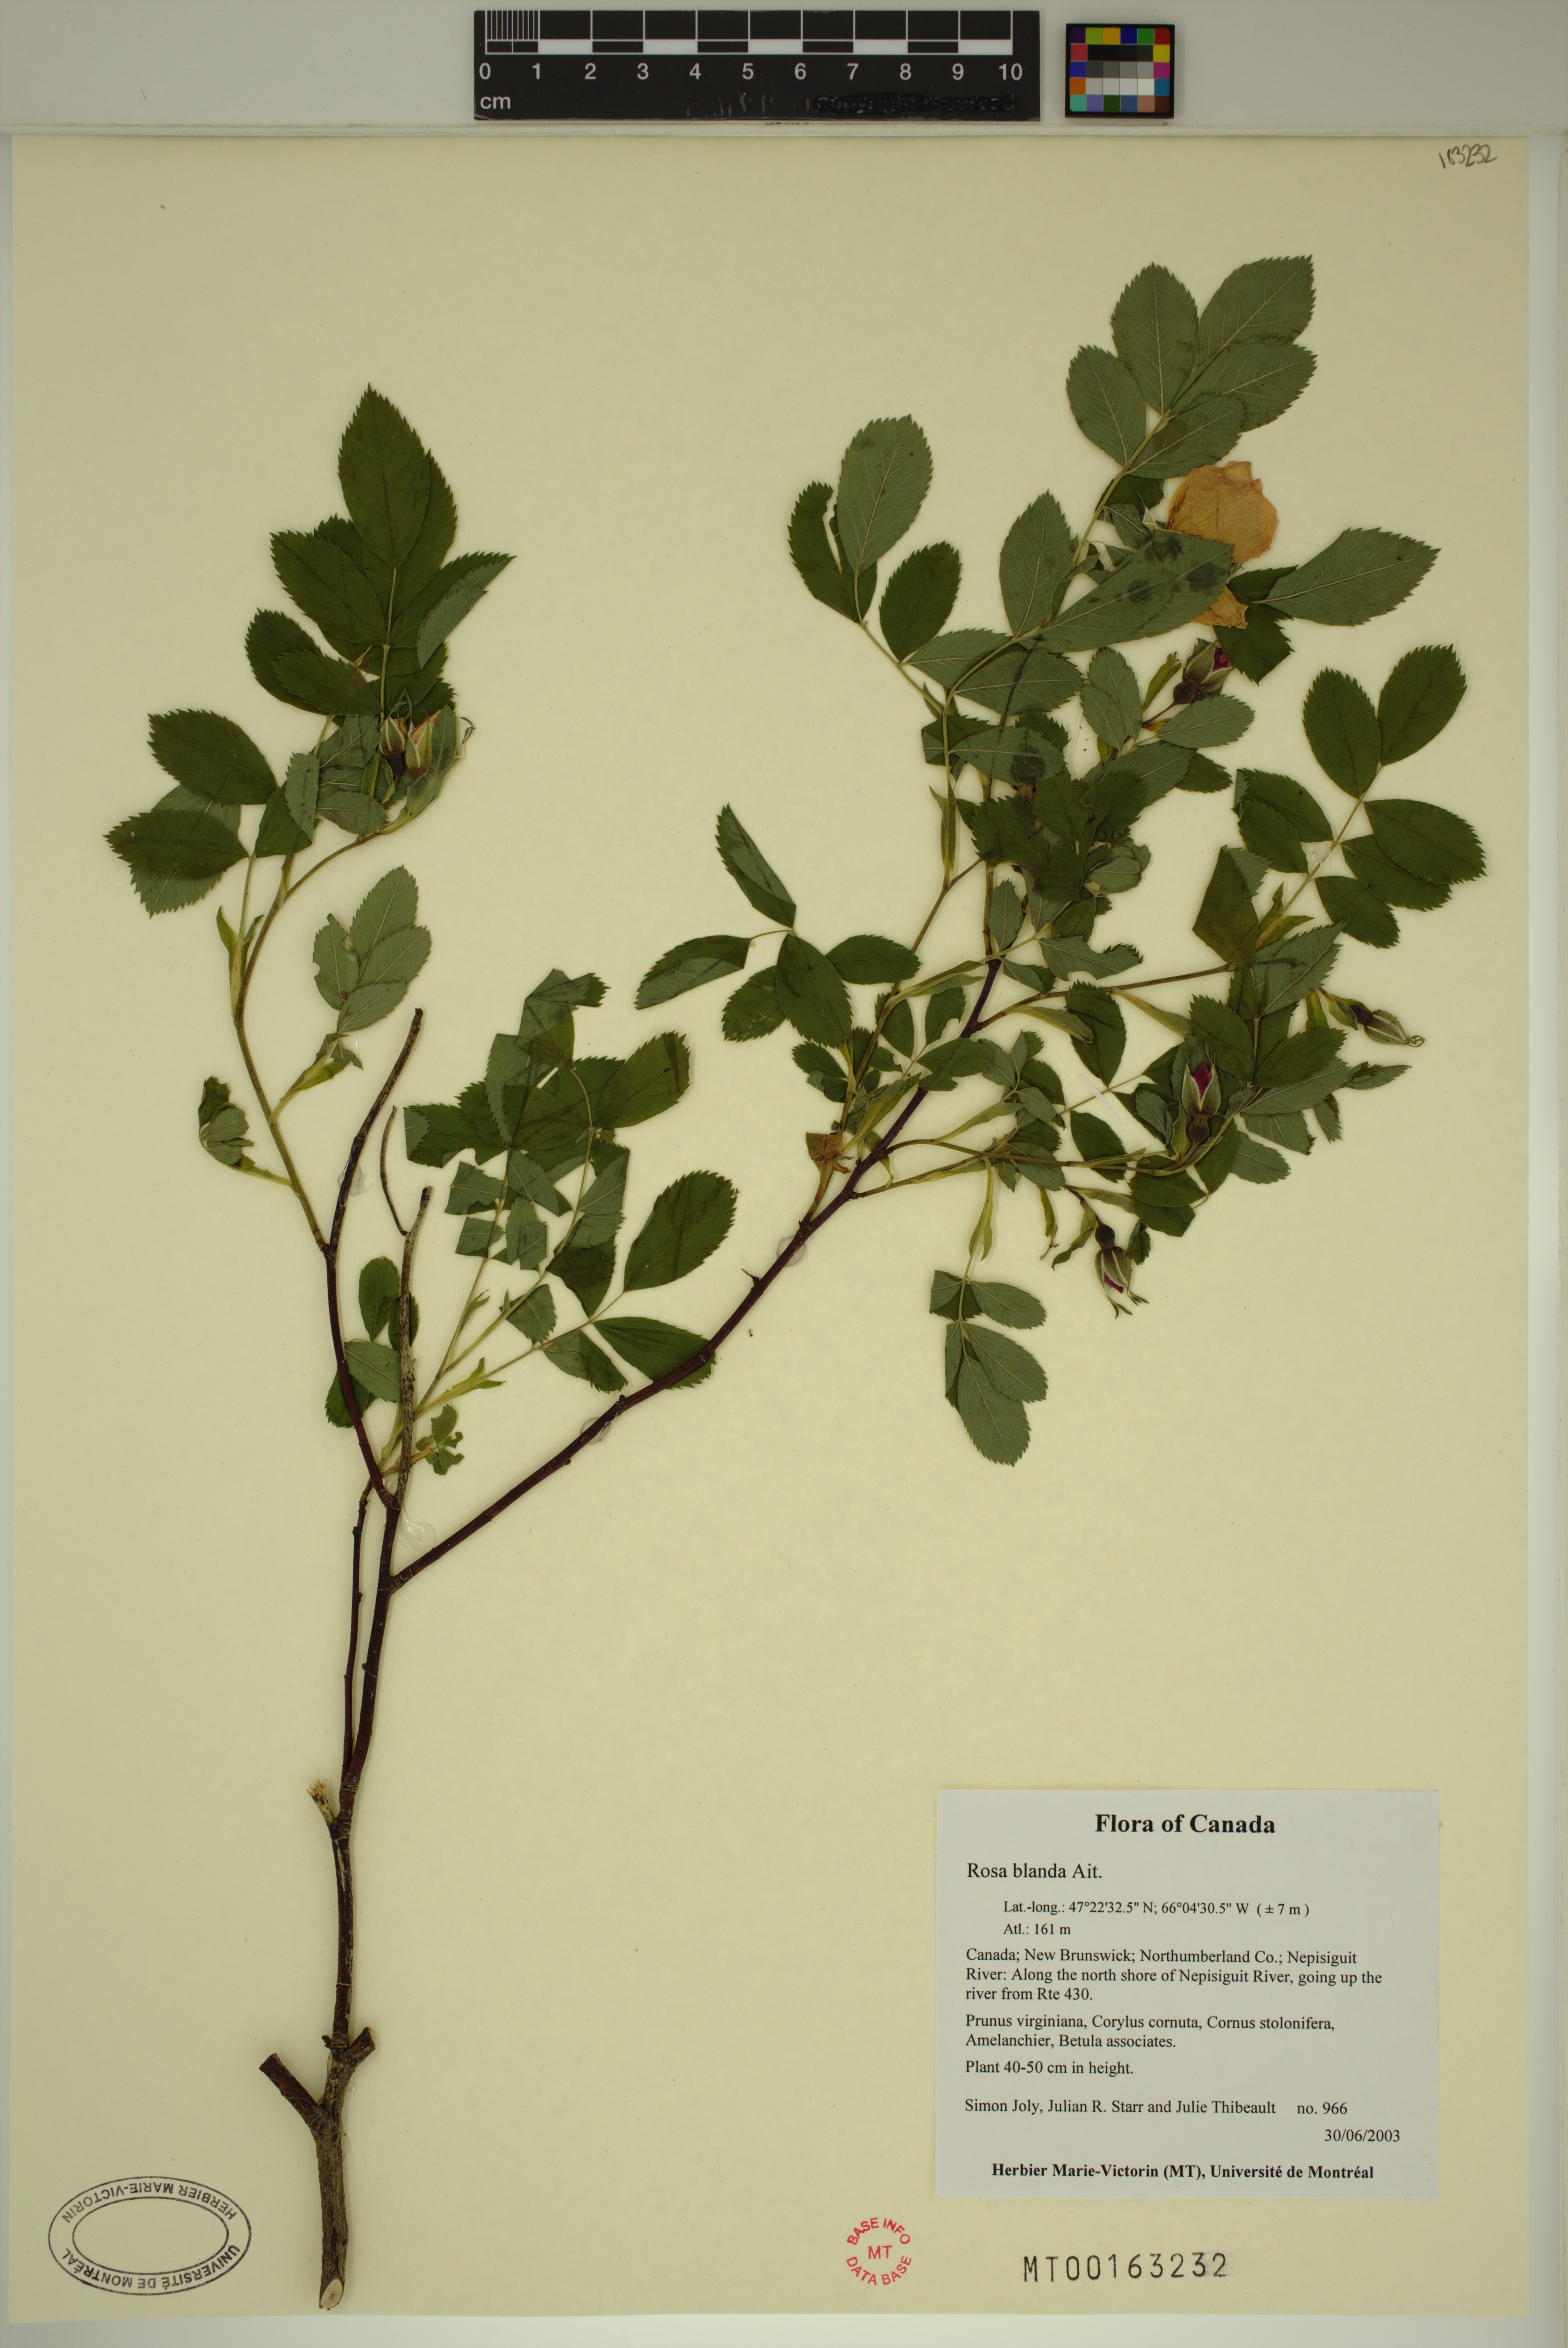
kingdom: Plantae
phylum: Tracheophyta
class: Magnoliopsida
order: Rosales
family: Rosaceae
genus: Rosa
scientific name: Rosa blanda
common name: Smooth rose
